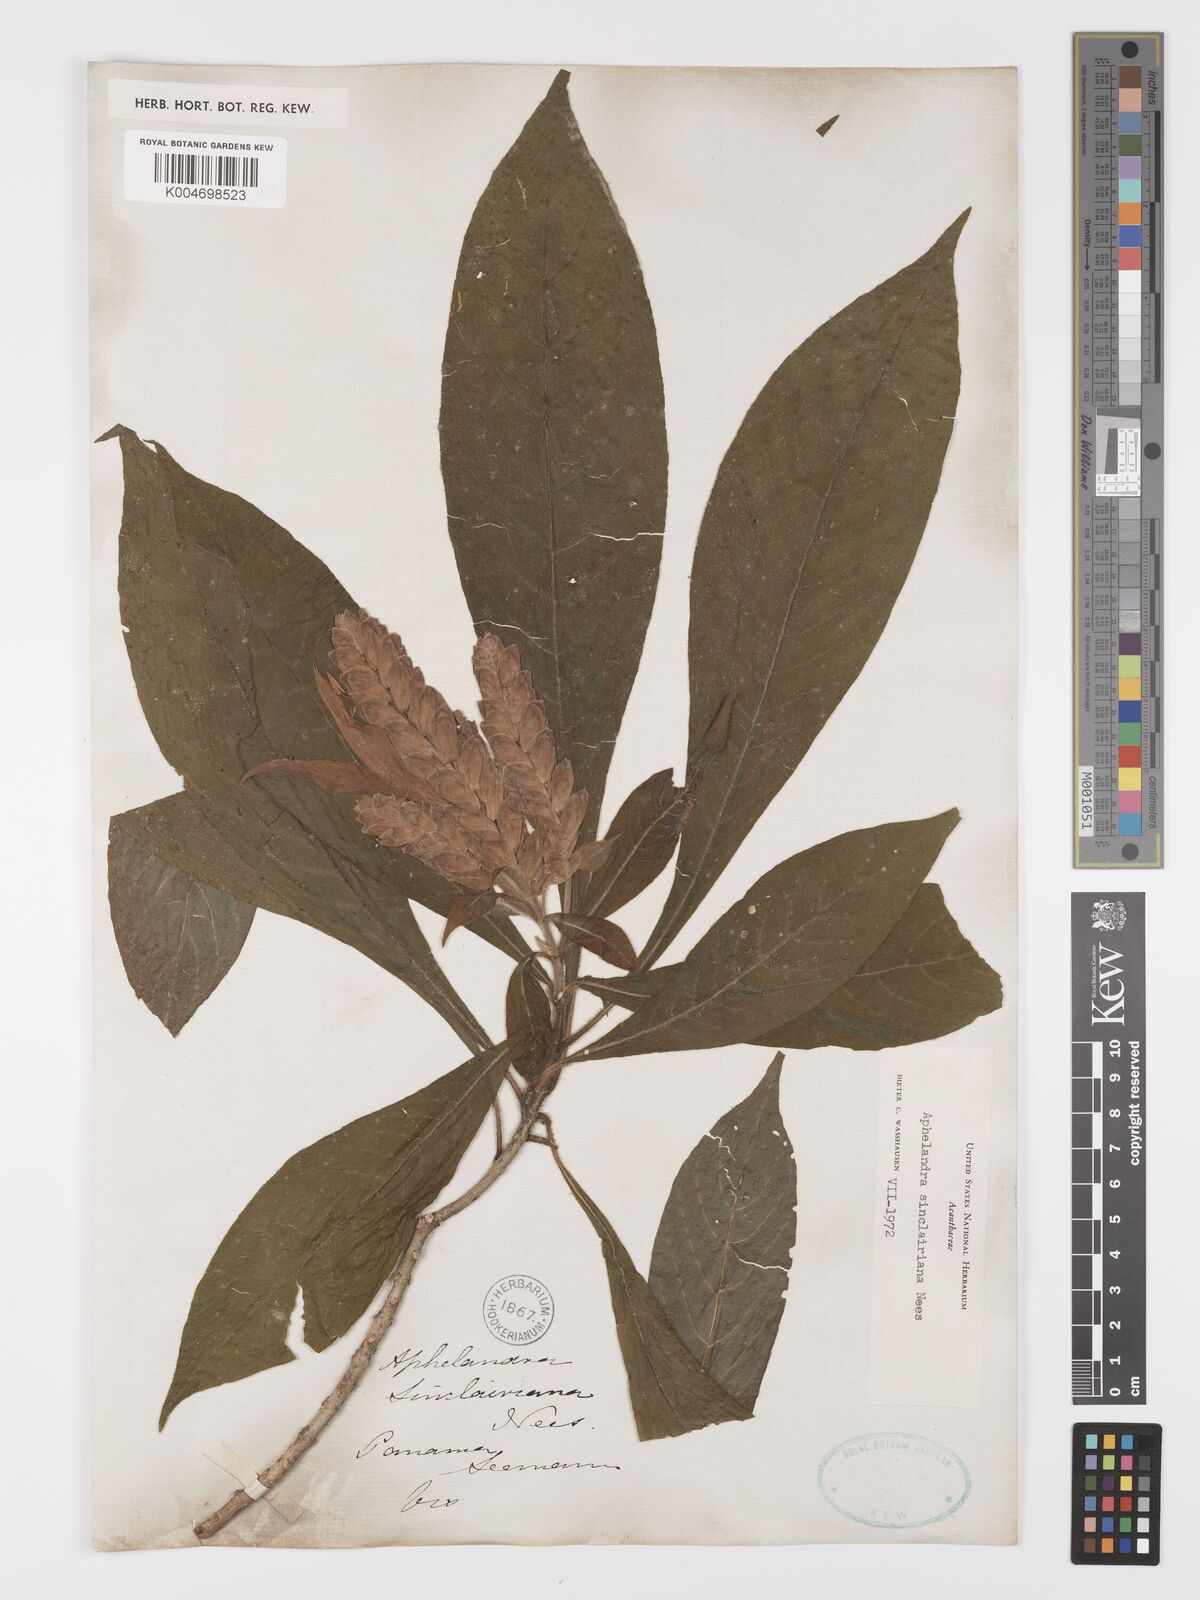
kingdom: Plantae
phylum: Tracheophyta
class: Magnoliopsida
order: Lamiales
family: Acanthaceae
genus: Aphelandra
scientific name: Aphelandra sinclairiana
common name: Coral aphelandra
